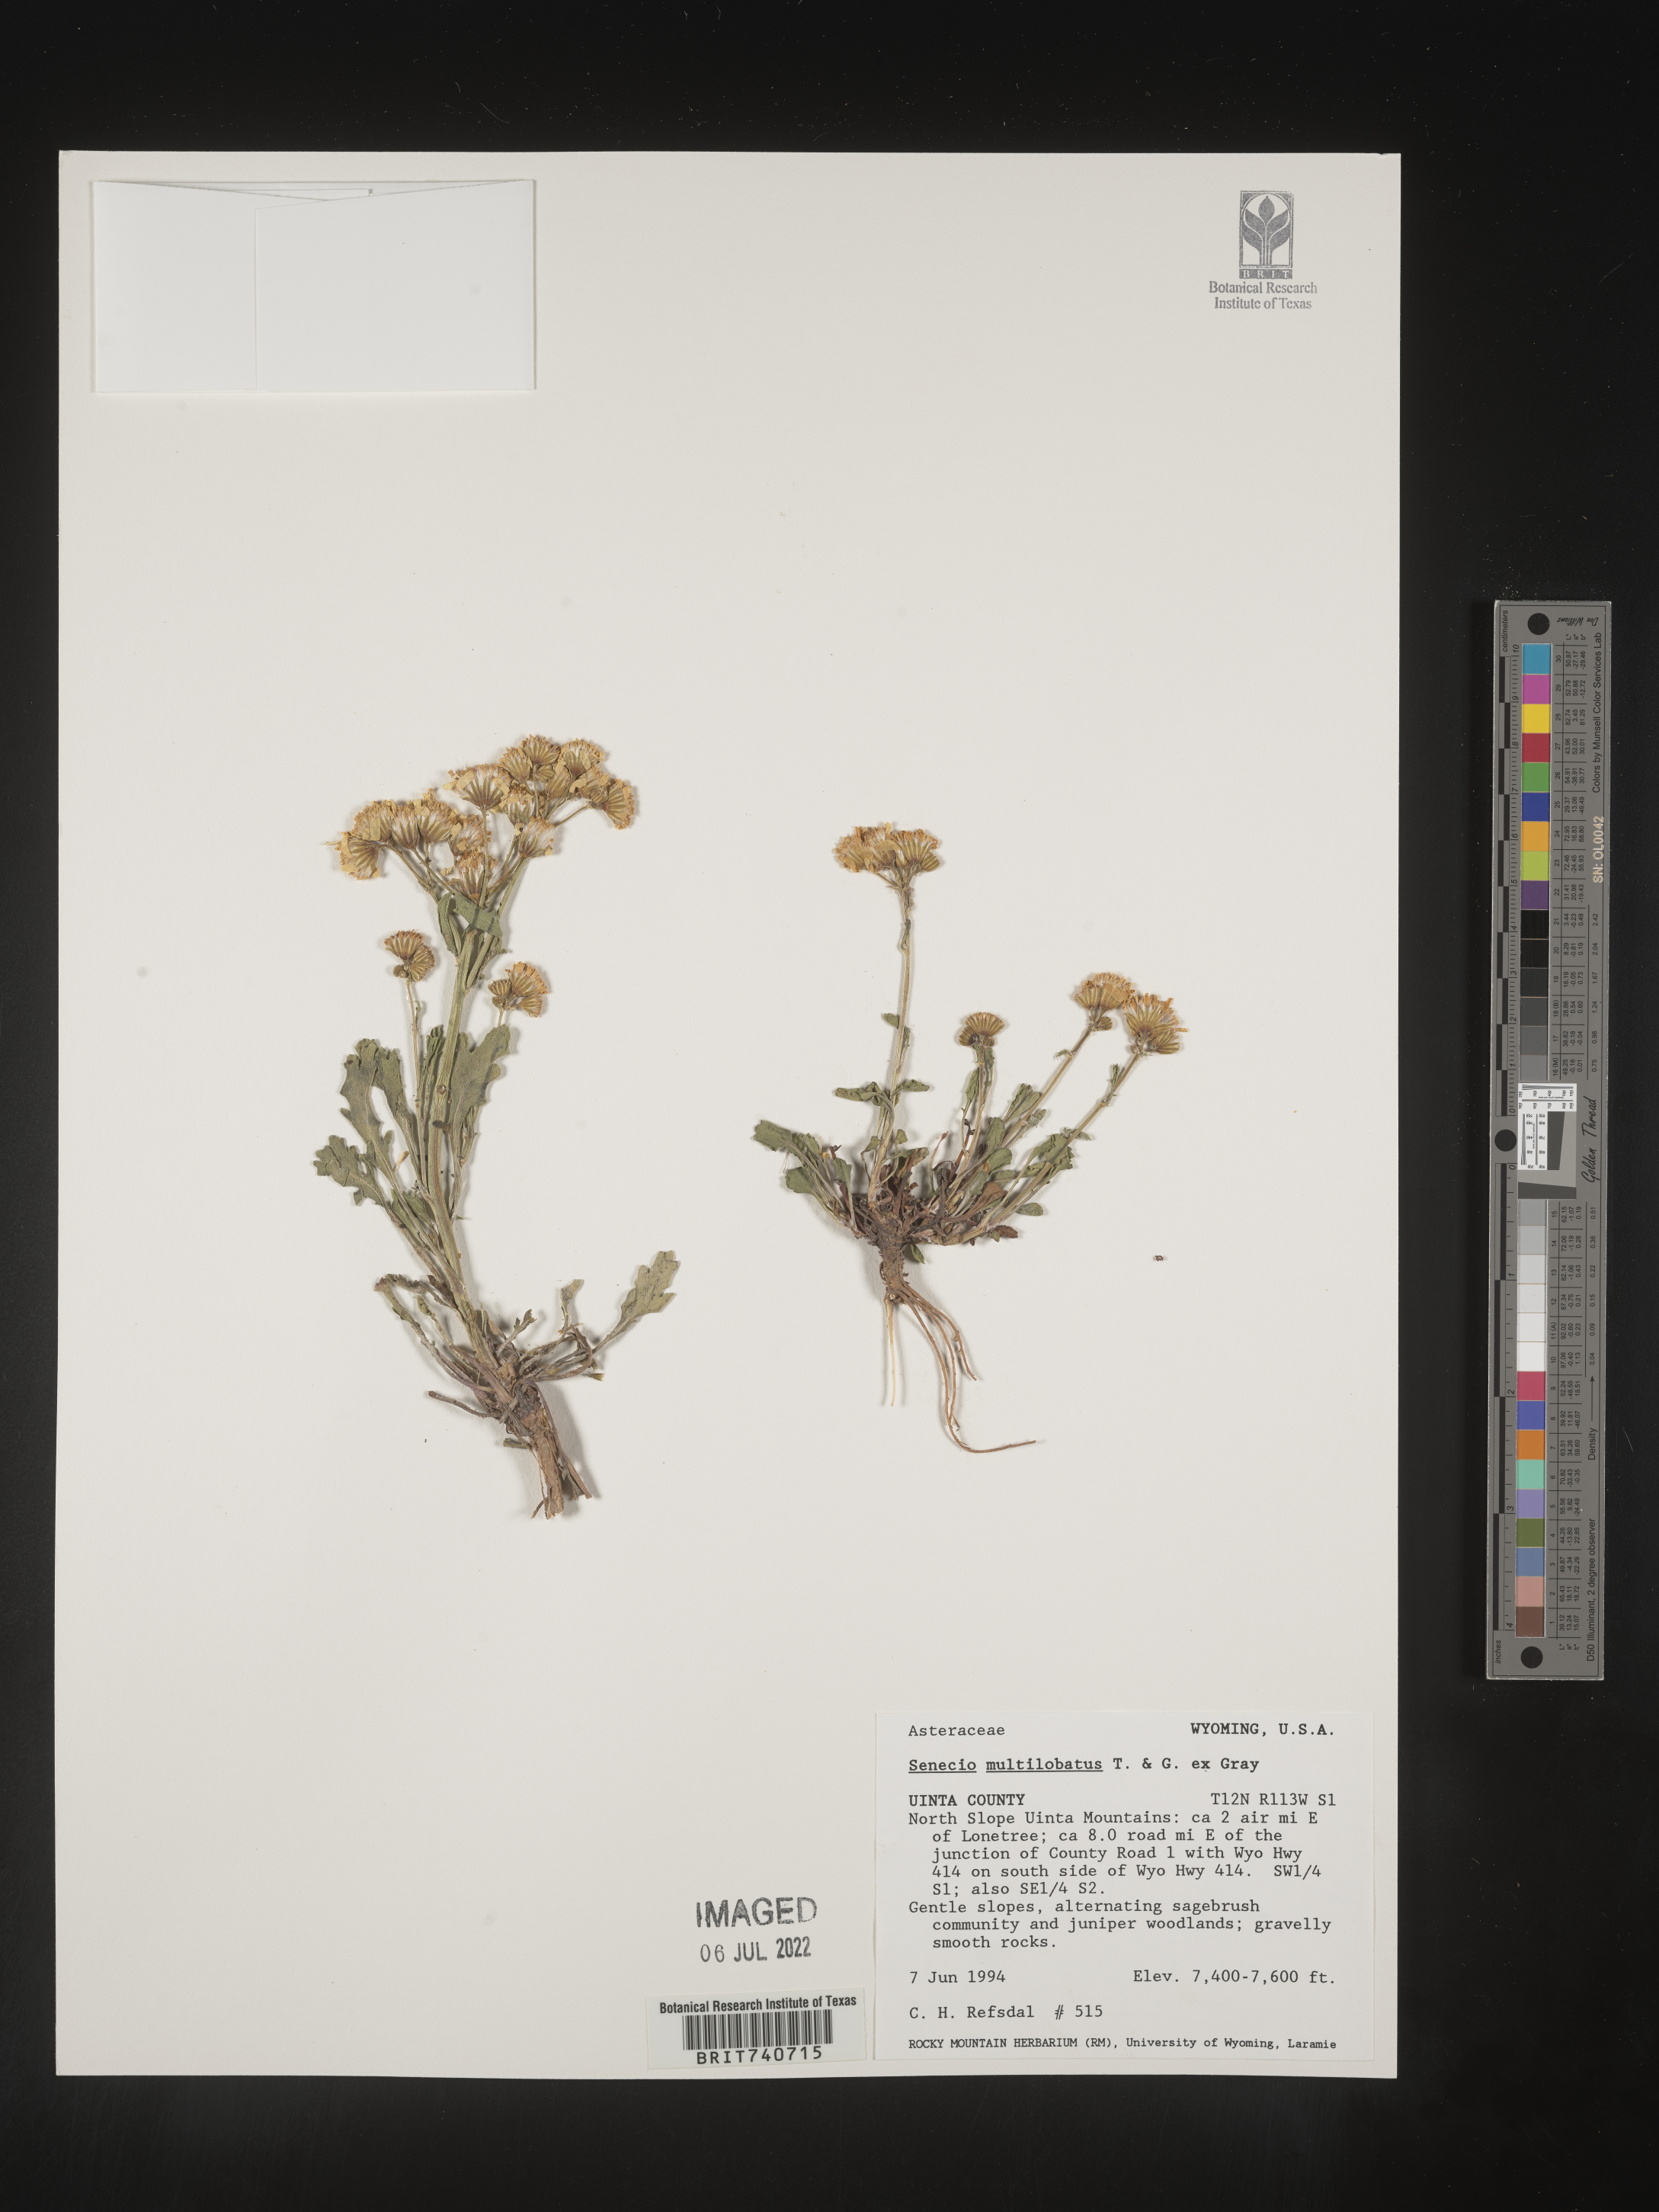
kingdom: Plantae
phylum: Tracheophyta
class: Magnoliopsida
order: Asterales
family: Asteraceae
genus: Packera
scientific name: Packera multilobata
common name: Lobe-leaf groundsel
